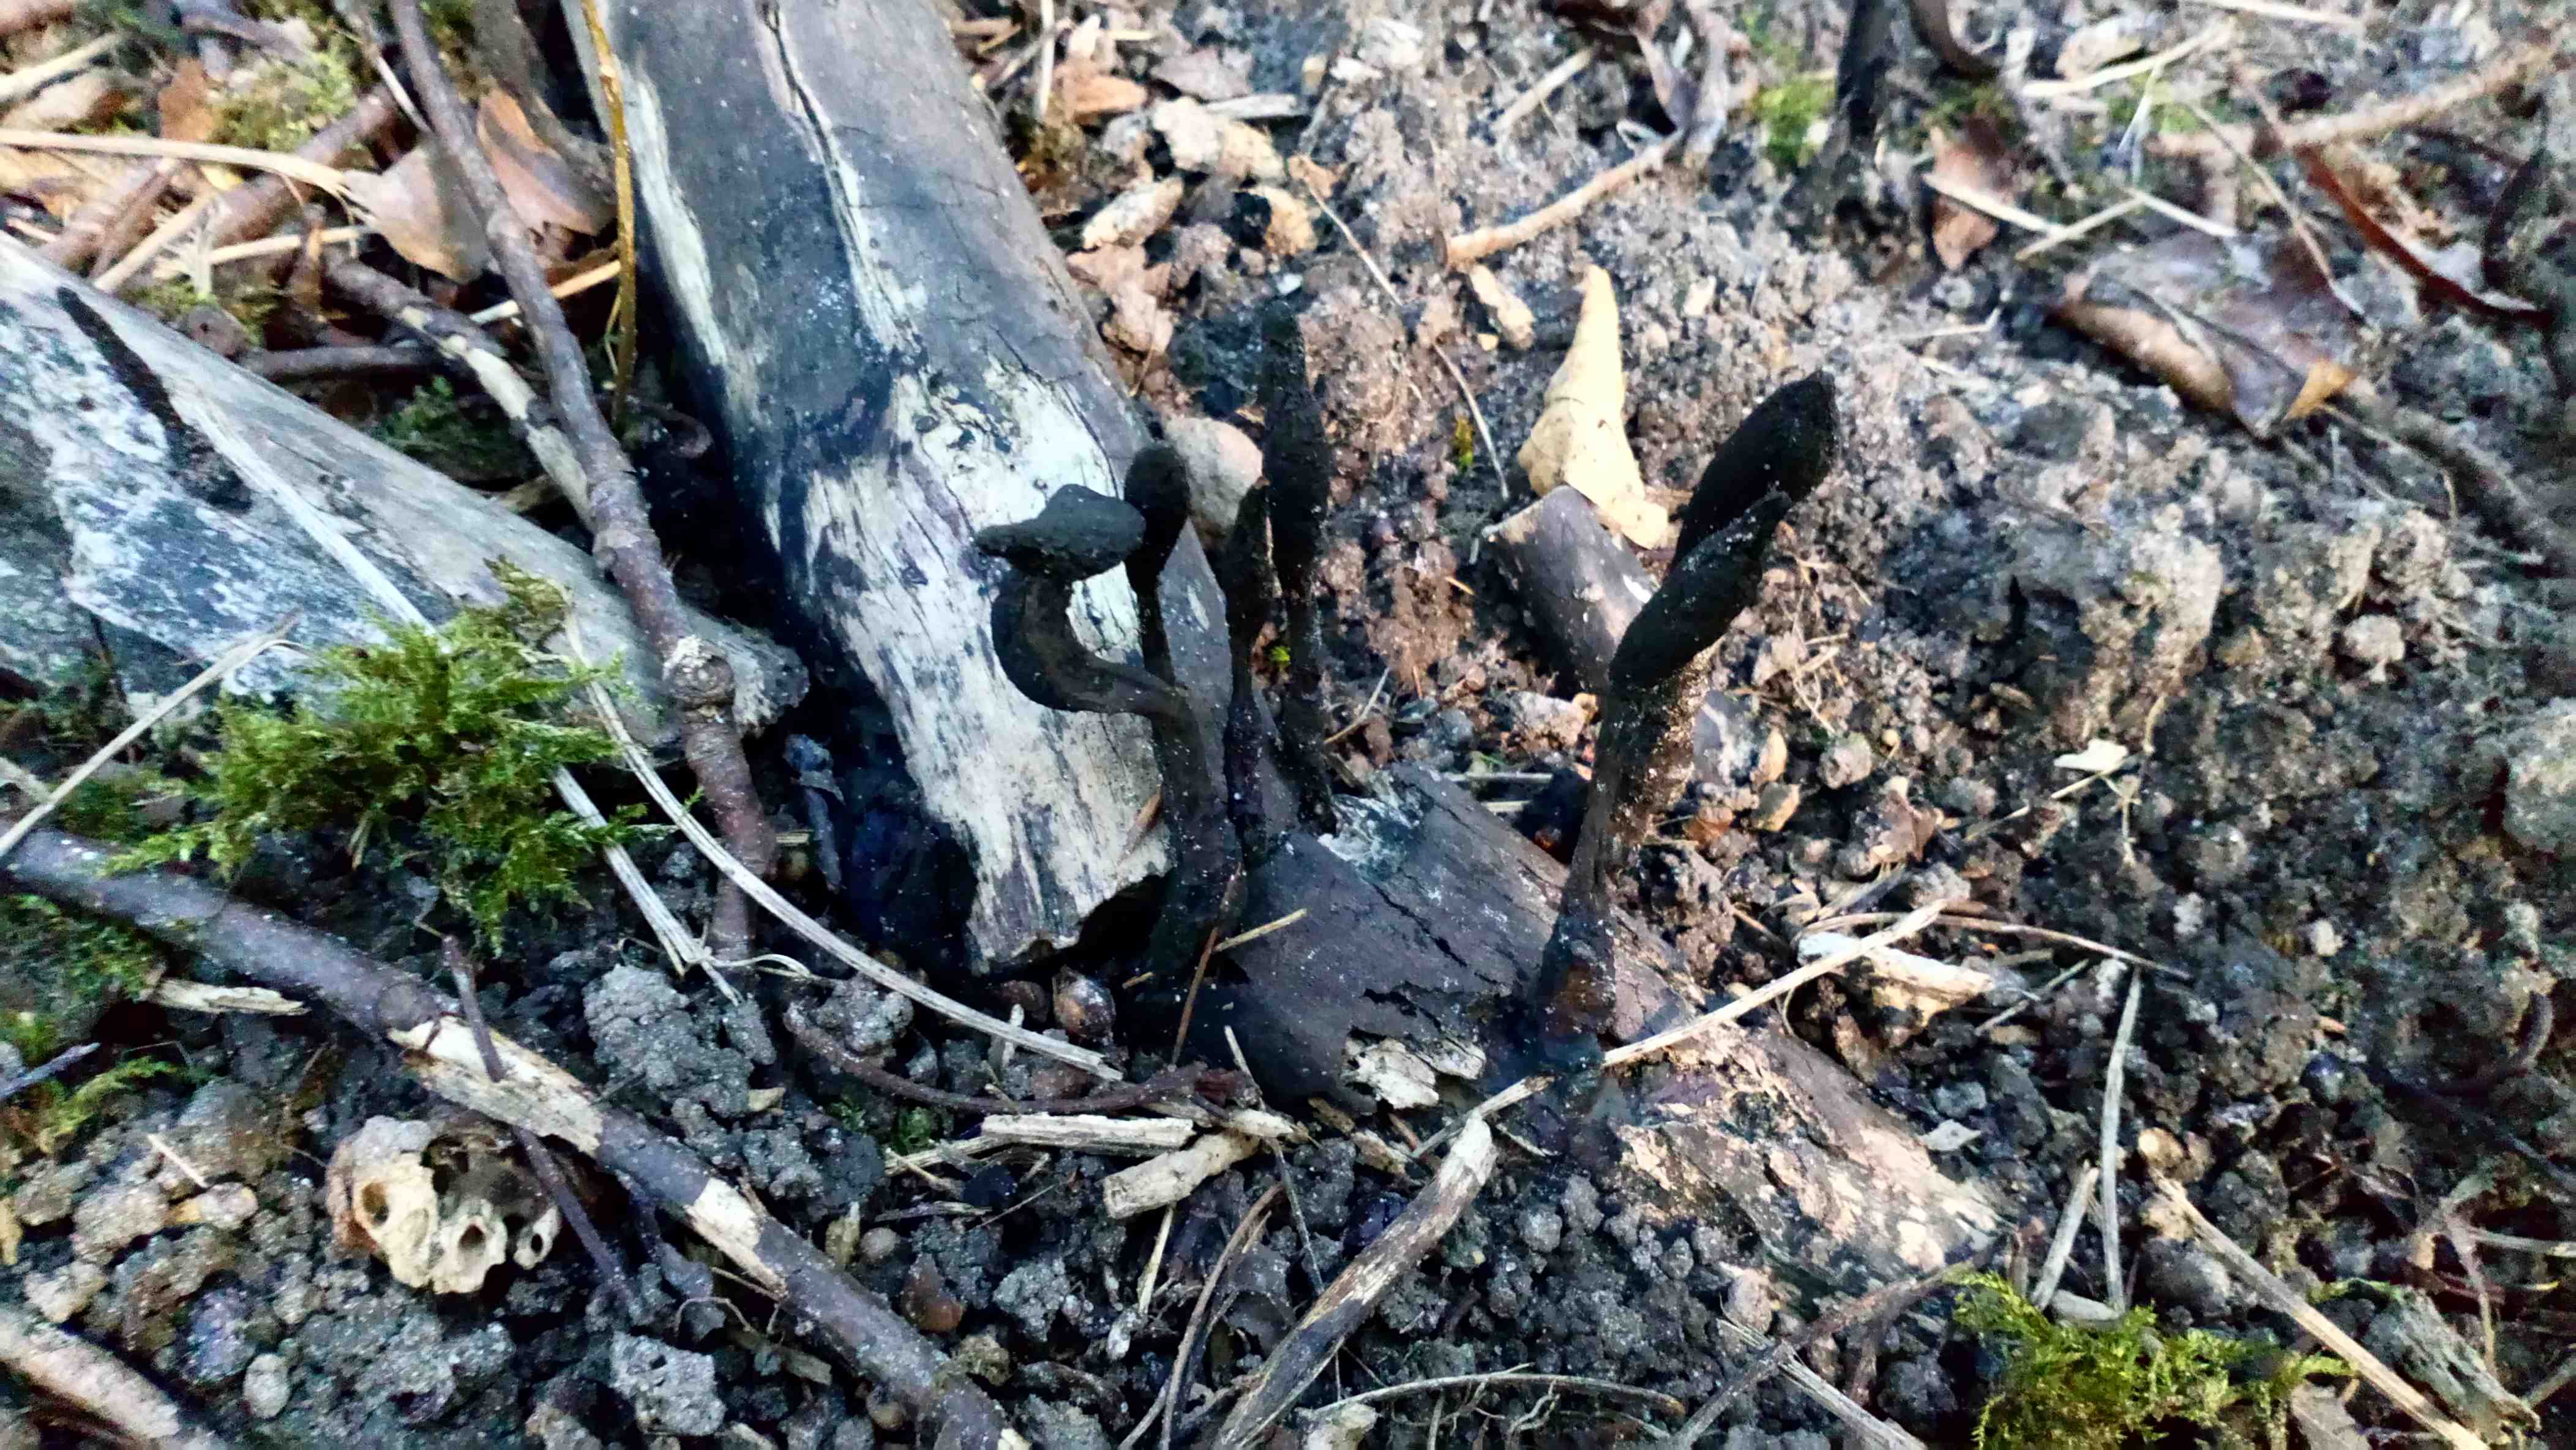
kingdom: Fungi
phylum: Ascomycota
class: Sordariomycetes
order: Xylariales
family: Xylariaceae
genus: Xylaria
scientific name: Xylaria longipes
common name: slank stødsvamp
